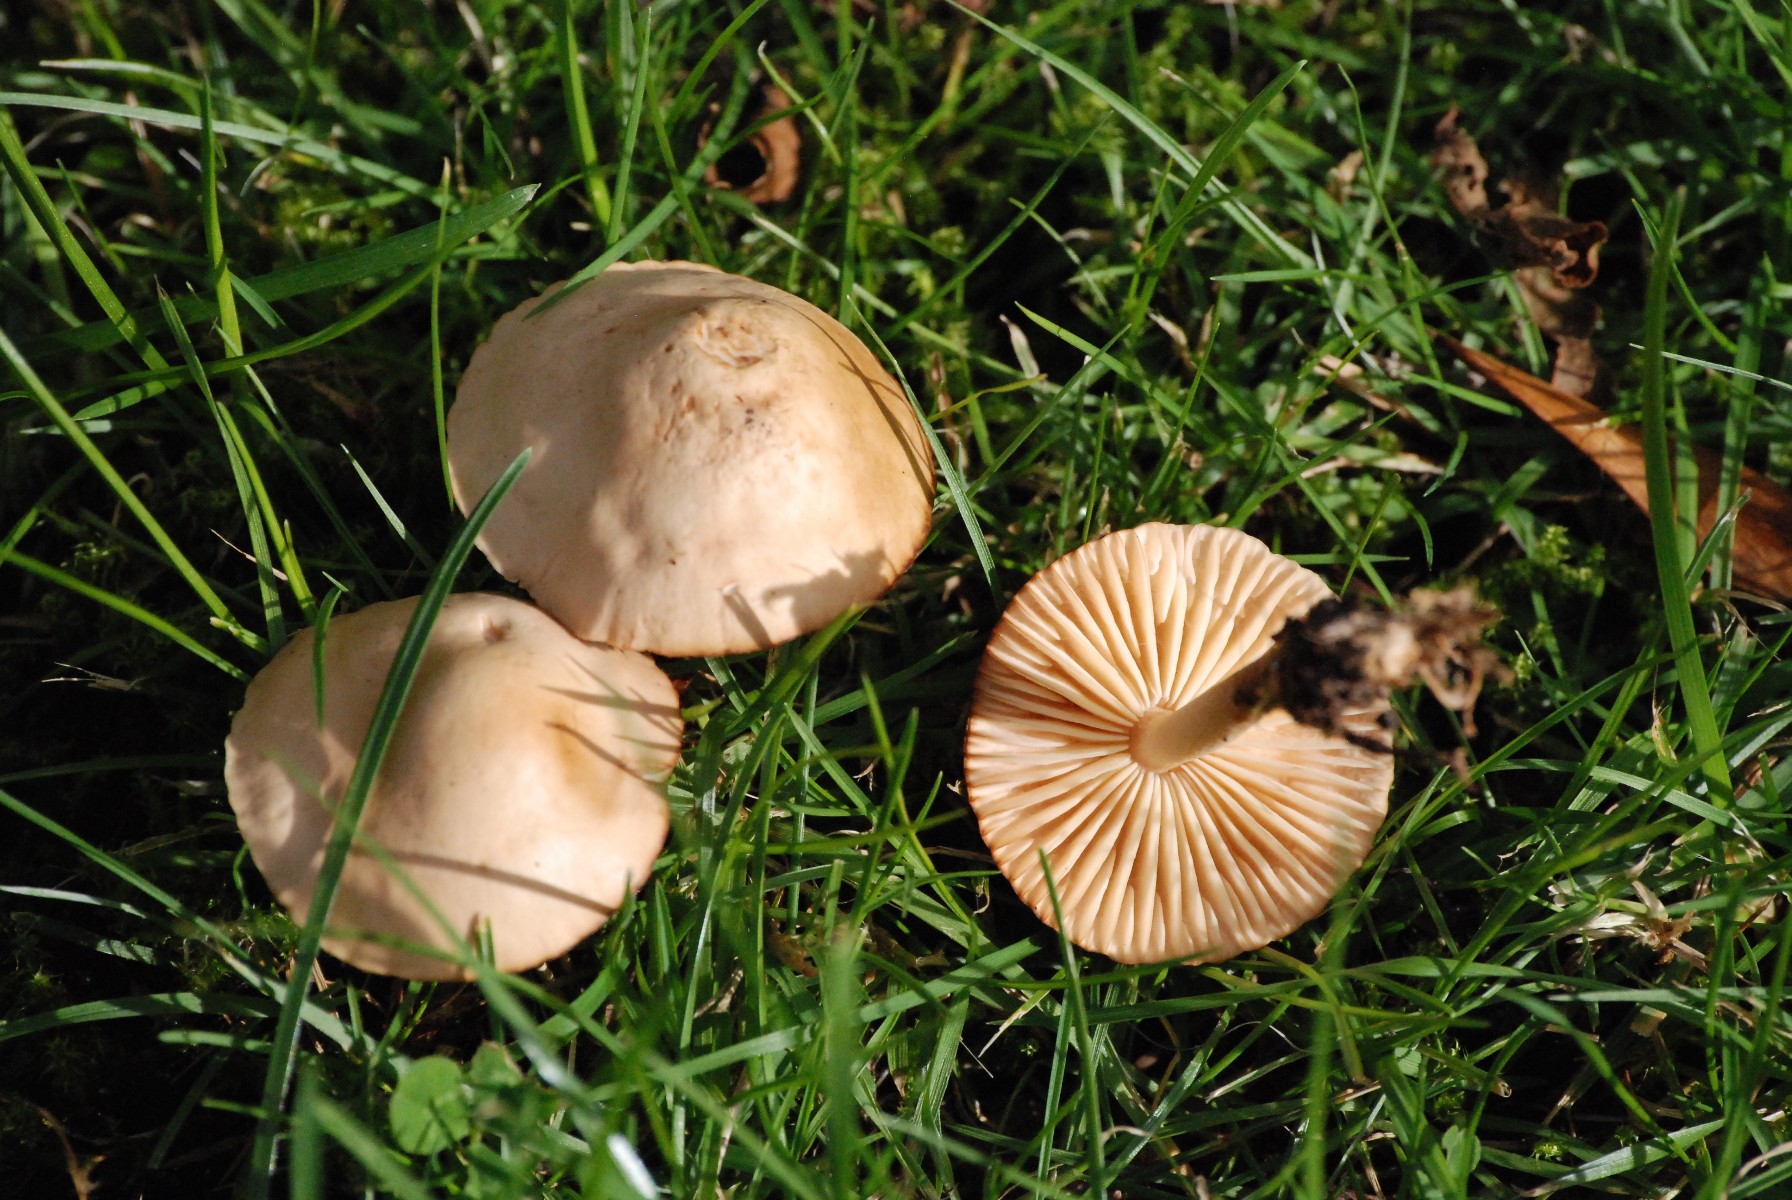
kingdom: Fungi
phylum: Basidiomycota
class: Agaricomycetes
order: Agaricales
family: Marasmiaceae
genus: Marasmius
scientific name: Marasmius oreades
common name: elledans-bruskhat
